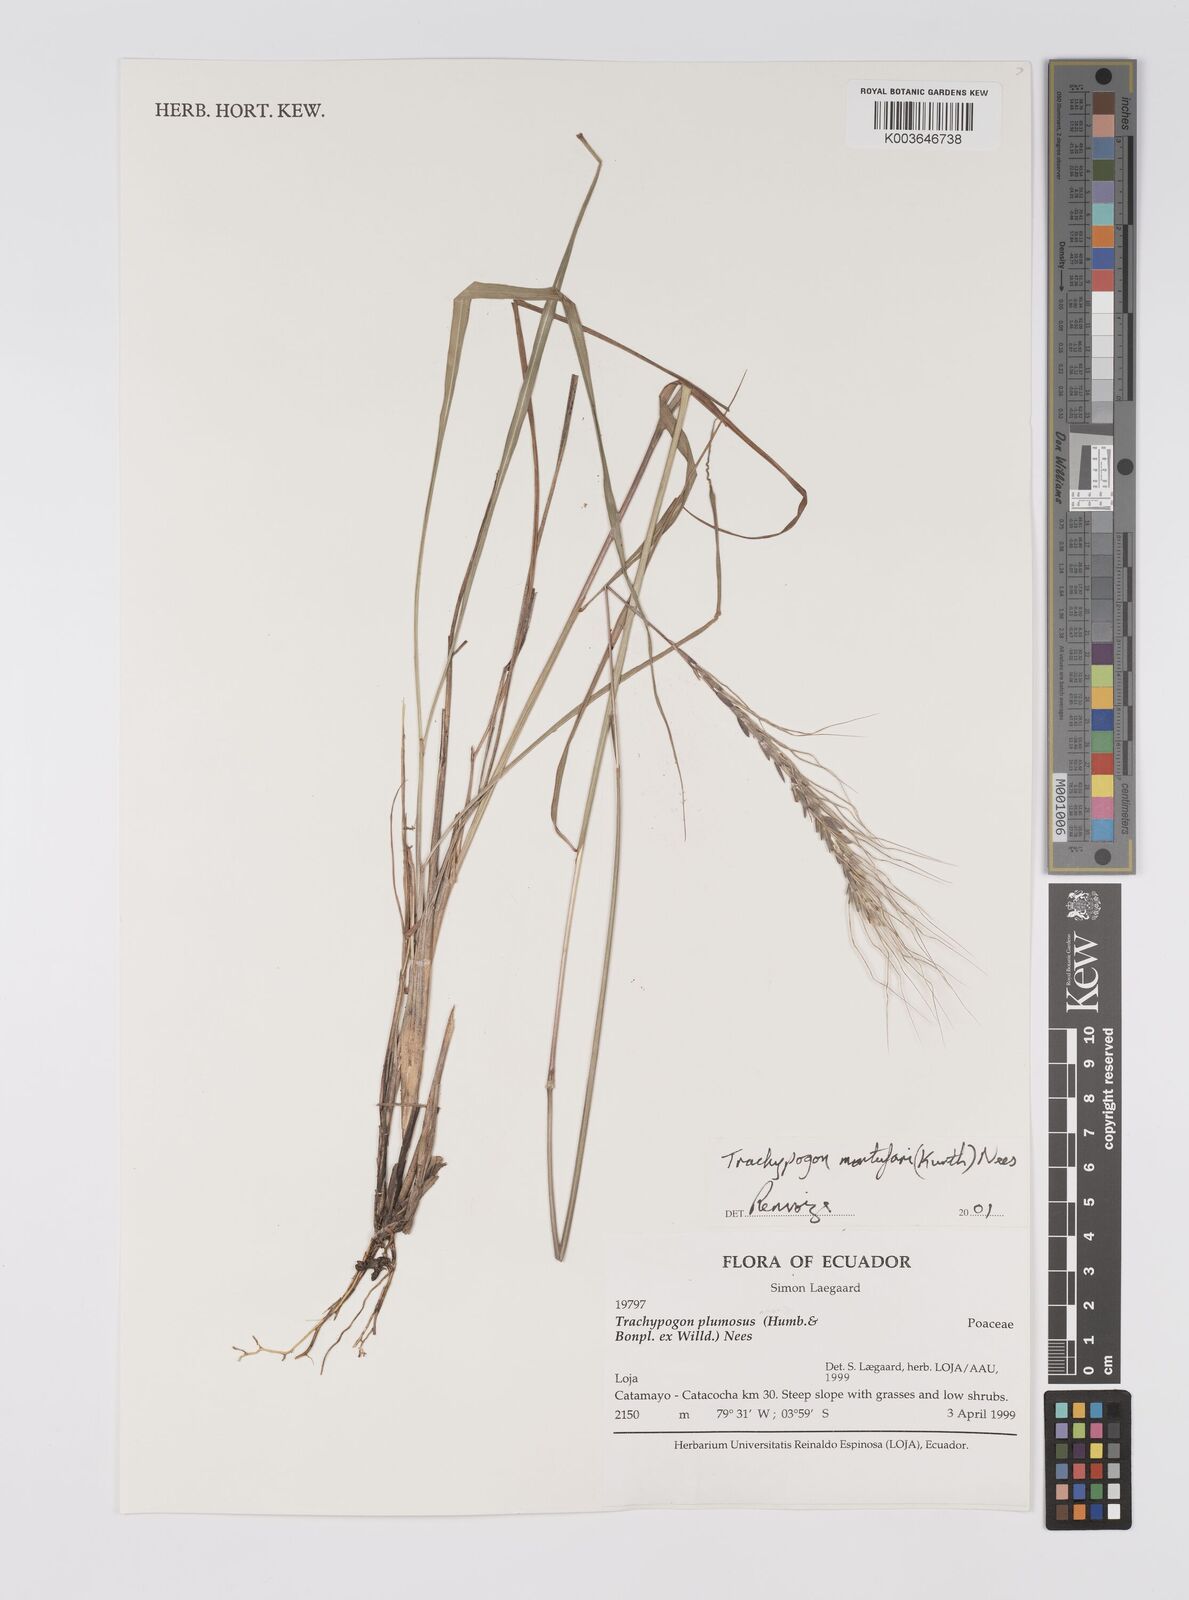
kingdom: Plantae
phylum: Tracheophyta
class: Liliopsida
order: Poales
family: Poaceae
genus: Trachypogon
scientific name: Trachypogon spicatus
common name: Crinkle-awn
